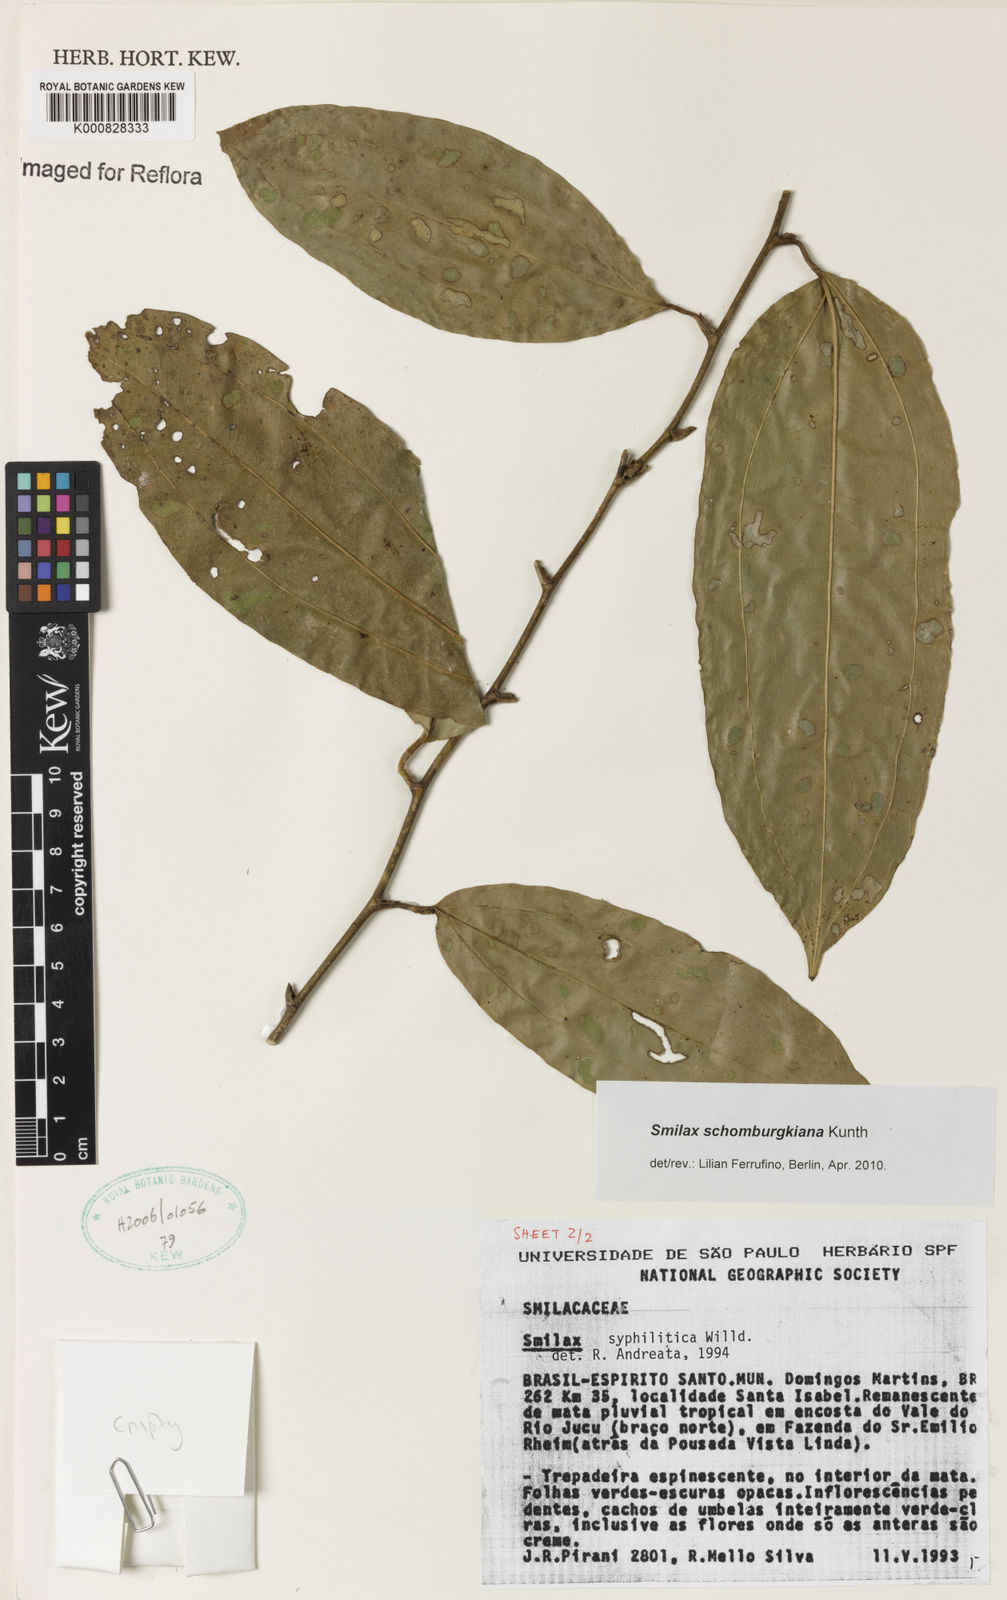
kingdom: Plantae
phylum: Tracheophyta
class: Liliopsida
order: Liliales
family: Smilacaceae
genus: Smilax
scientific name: Smilax schomburgkiana
